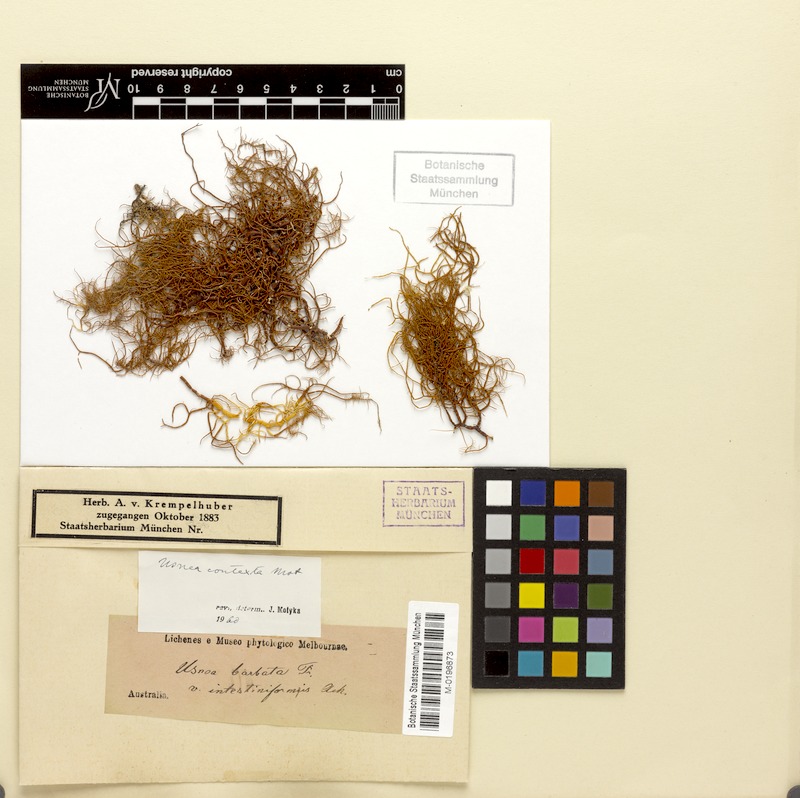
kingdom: Fungi
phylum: Ascomycota
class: Lecanoromycetes
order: Lecanorales
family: Parmeliaceae
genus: Usnea
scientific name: Usnea contexta
